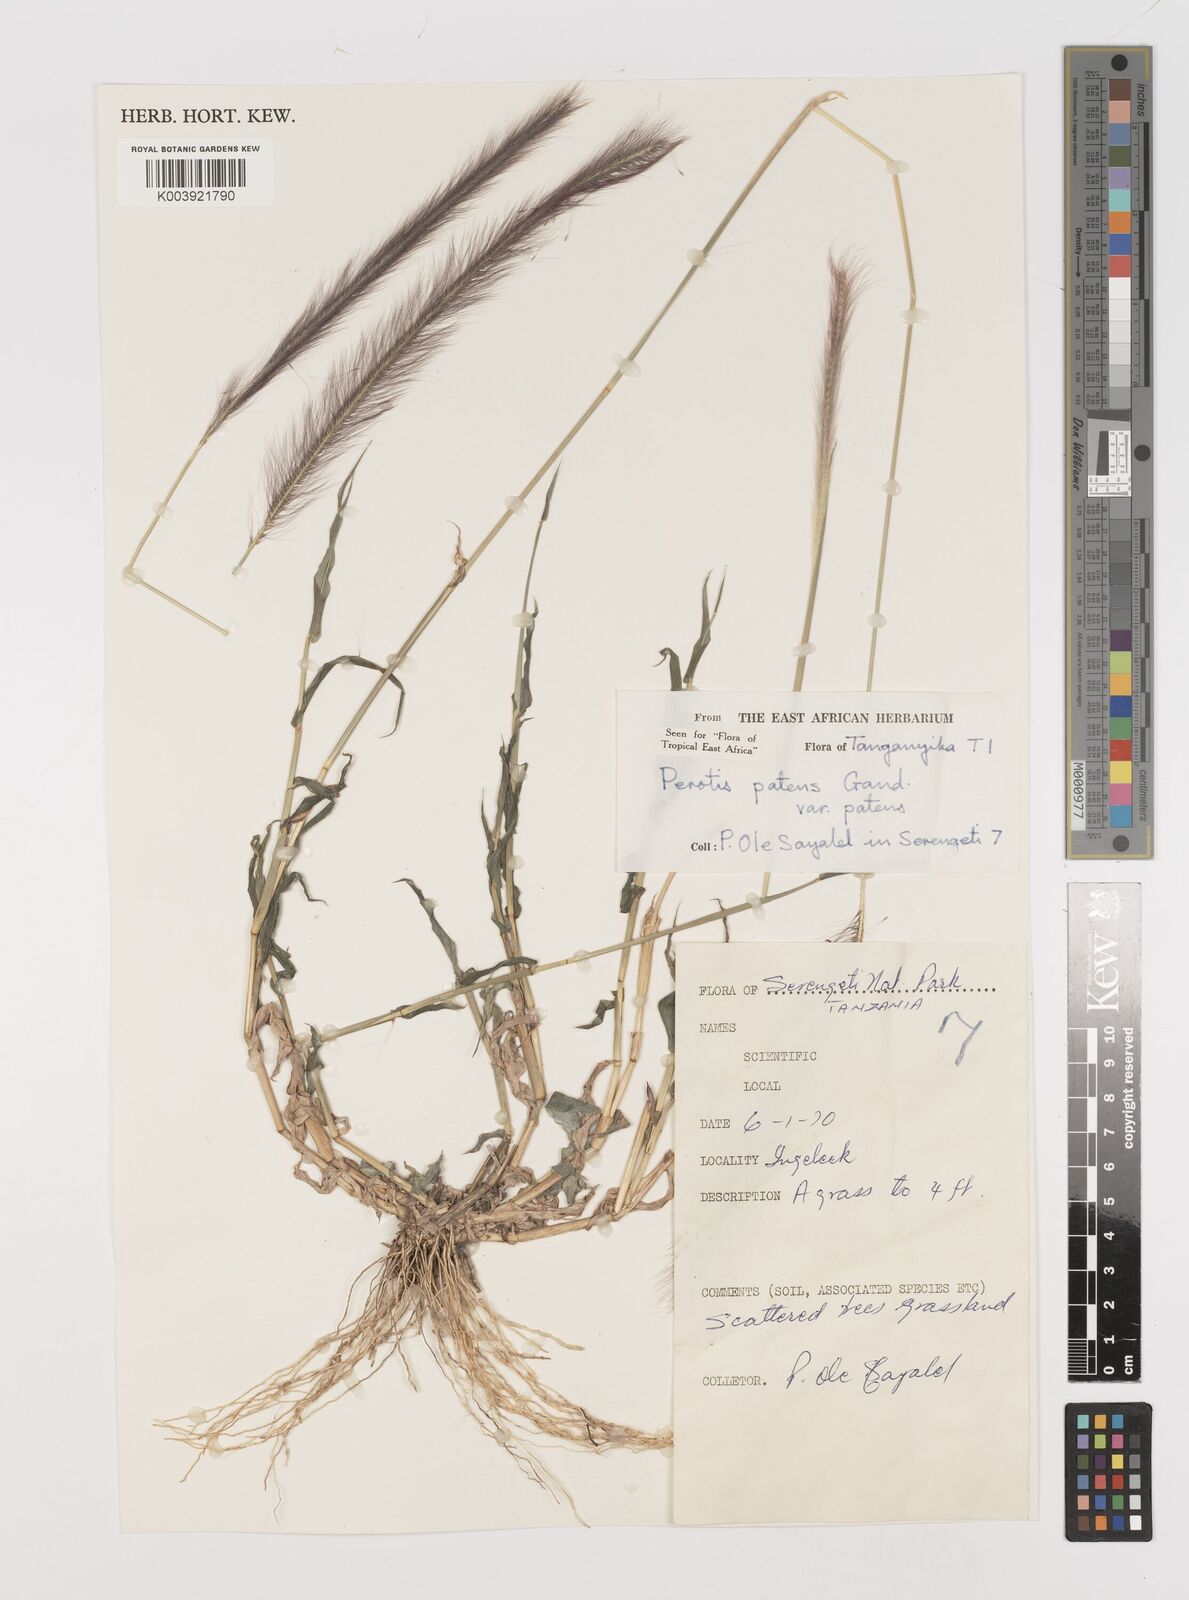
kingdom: Plantae
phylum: Tracheophyta
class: Liliopsida
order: Poales
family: Poaceae
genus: Perotis
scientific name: Perotis patens
